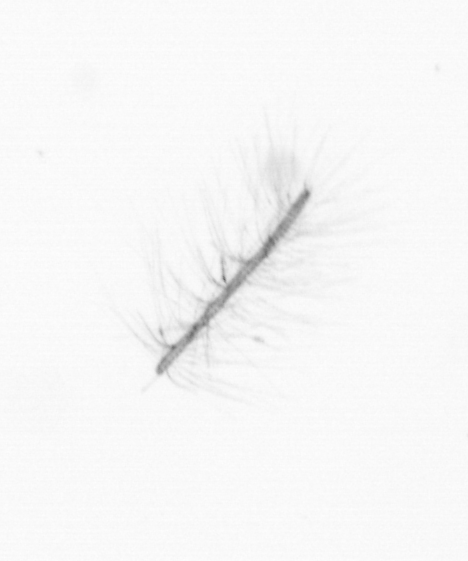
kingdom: Chromista
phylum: Ochrophyta
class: Bacillariophyceae
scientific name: Bacillariophyceae
